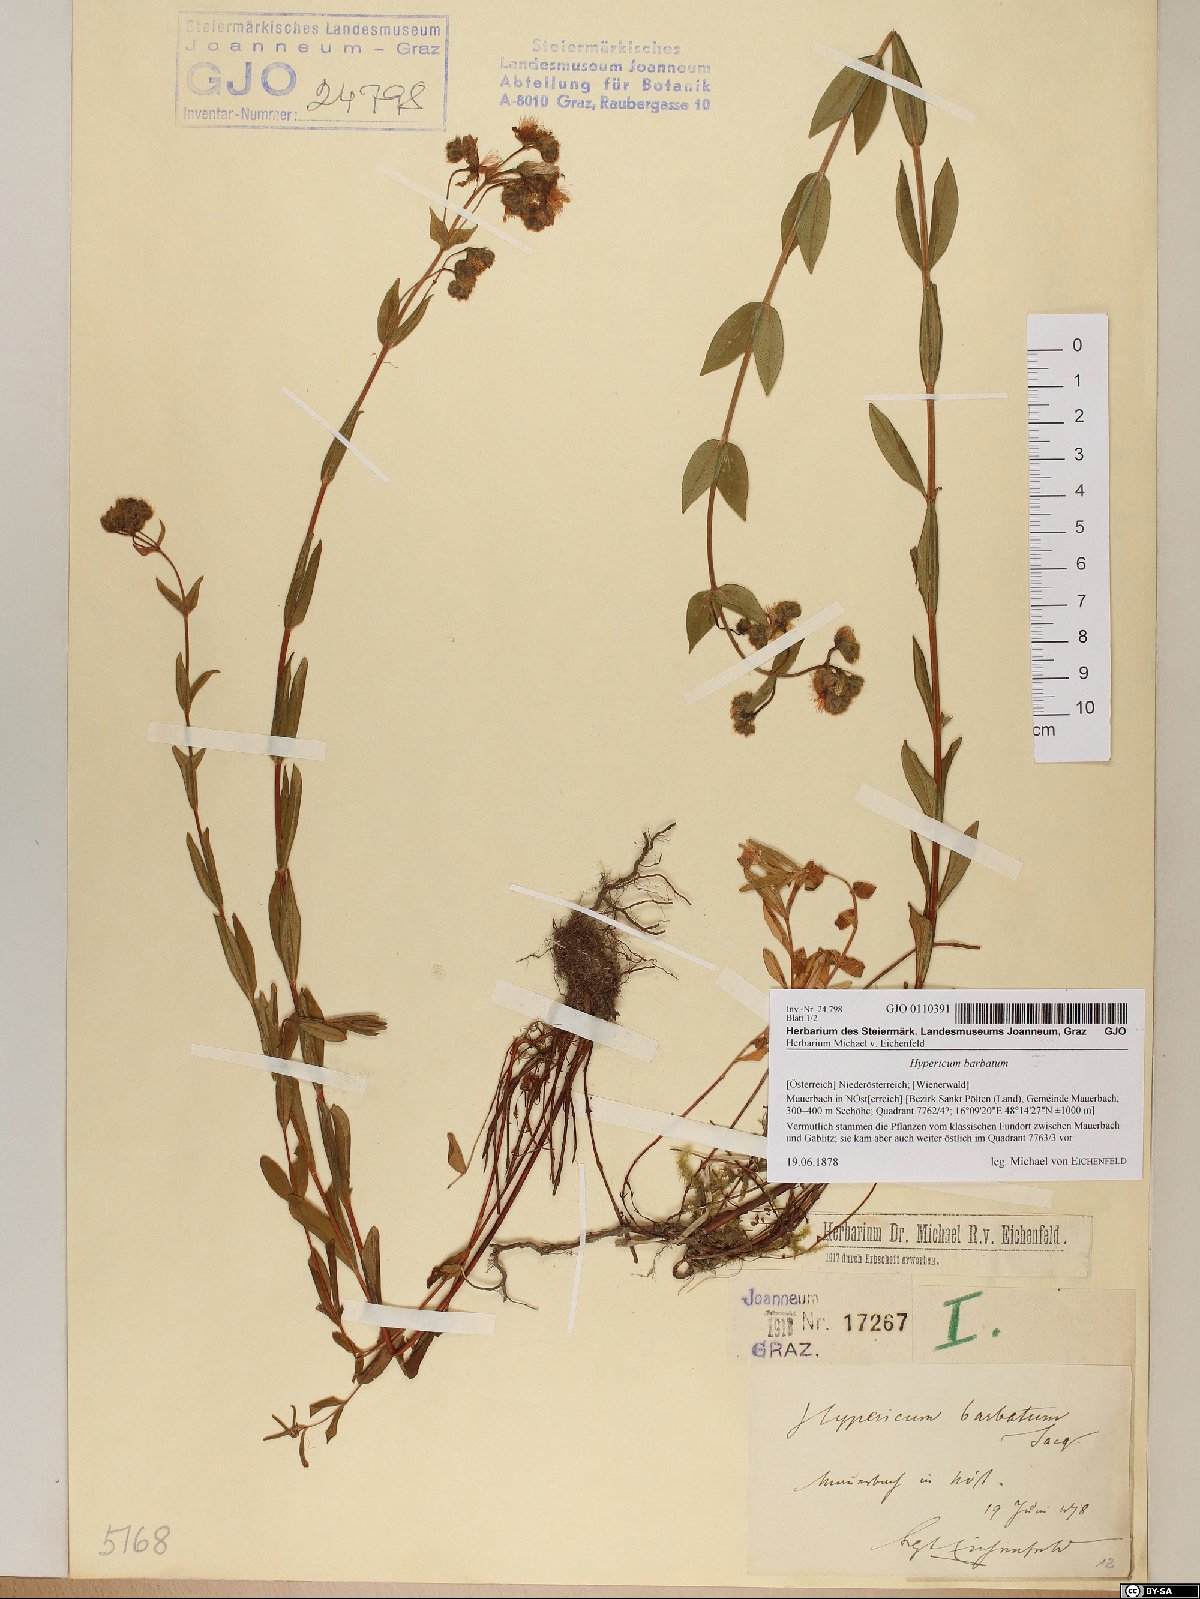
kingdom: Plantae
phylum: Tracheophyta
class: Magnoliopsida
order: Malpighiales
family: Hypericaceae
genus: Hypericum
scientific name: Hypericum barbatum
